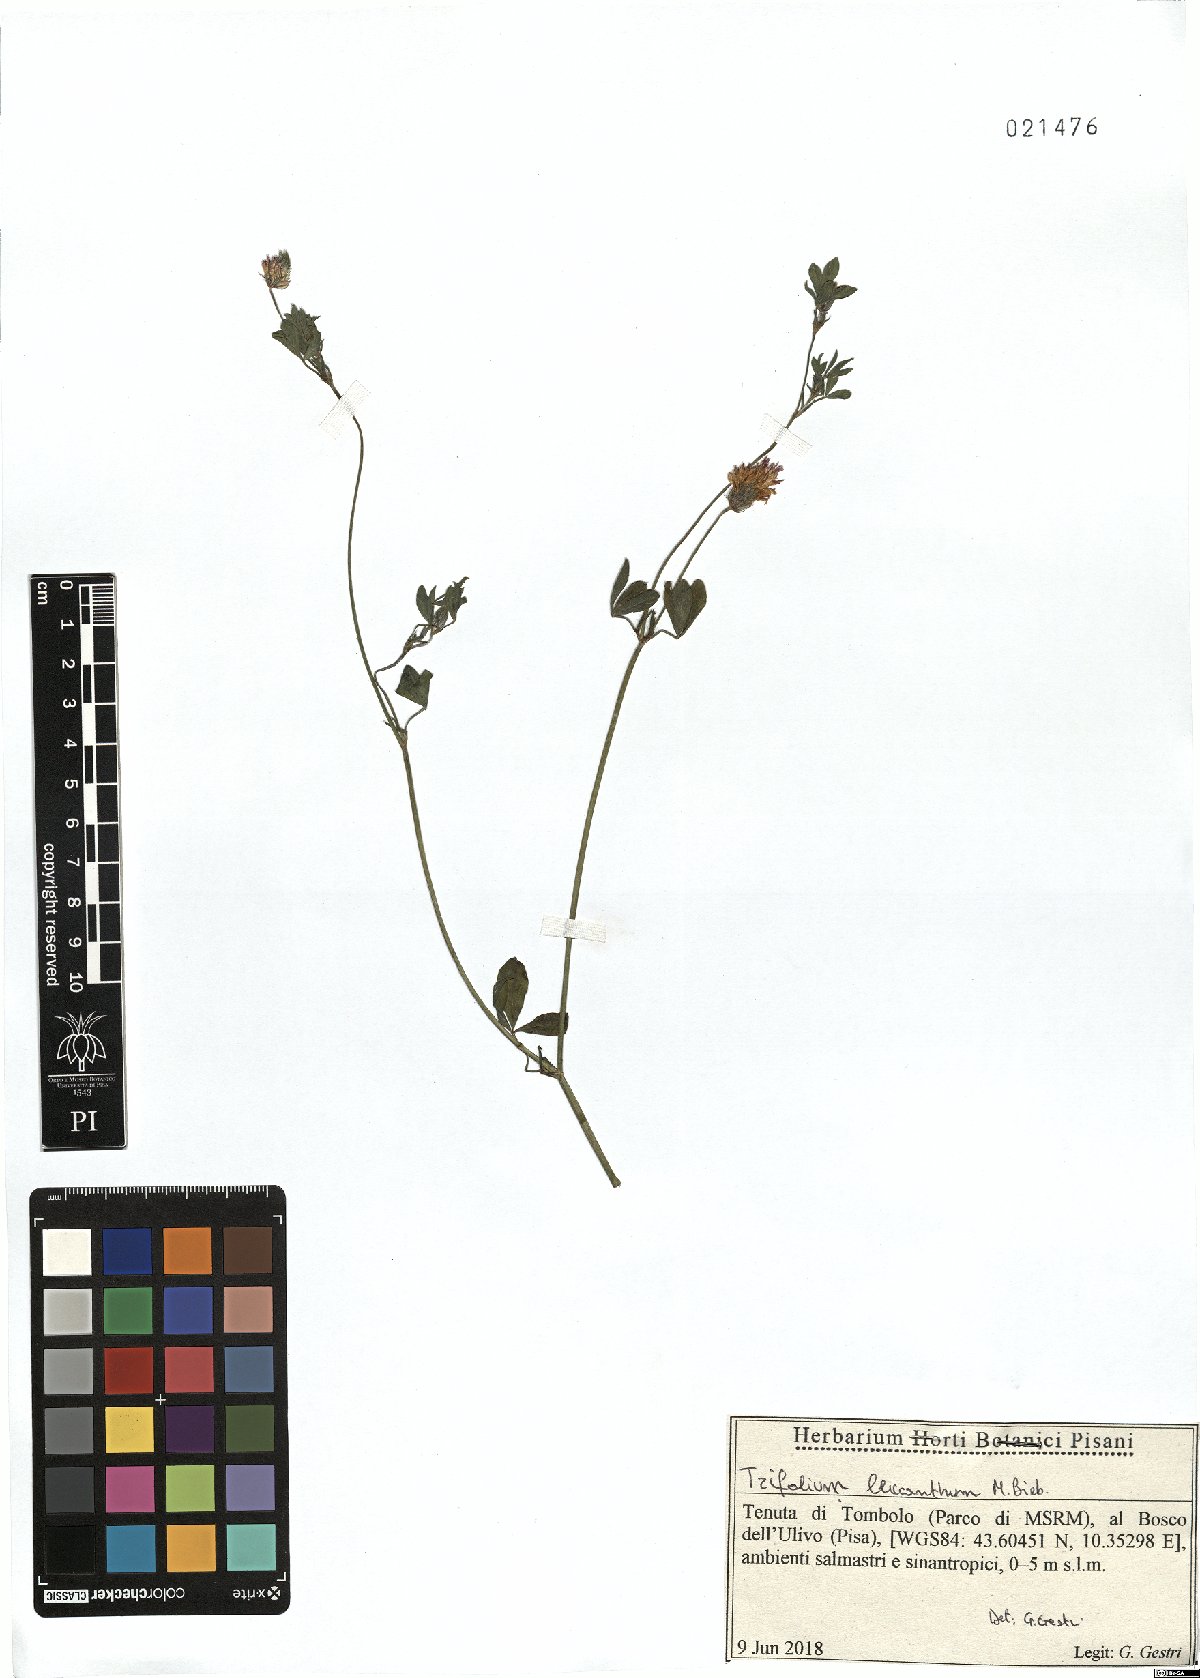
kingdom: Plantae
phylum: Tracheophyta
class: Magnoliopsida
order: Fabales
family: Fabaceae
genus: Trifolium
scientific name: Trifolium leucanthum
